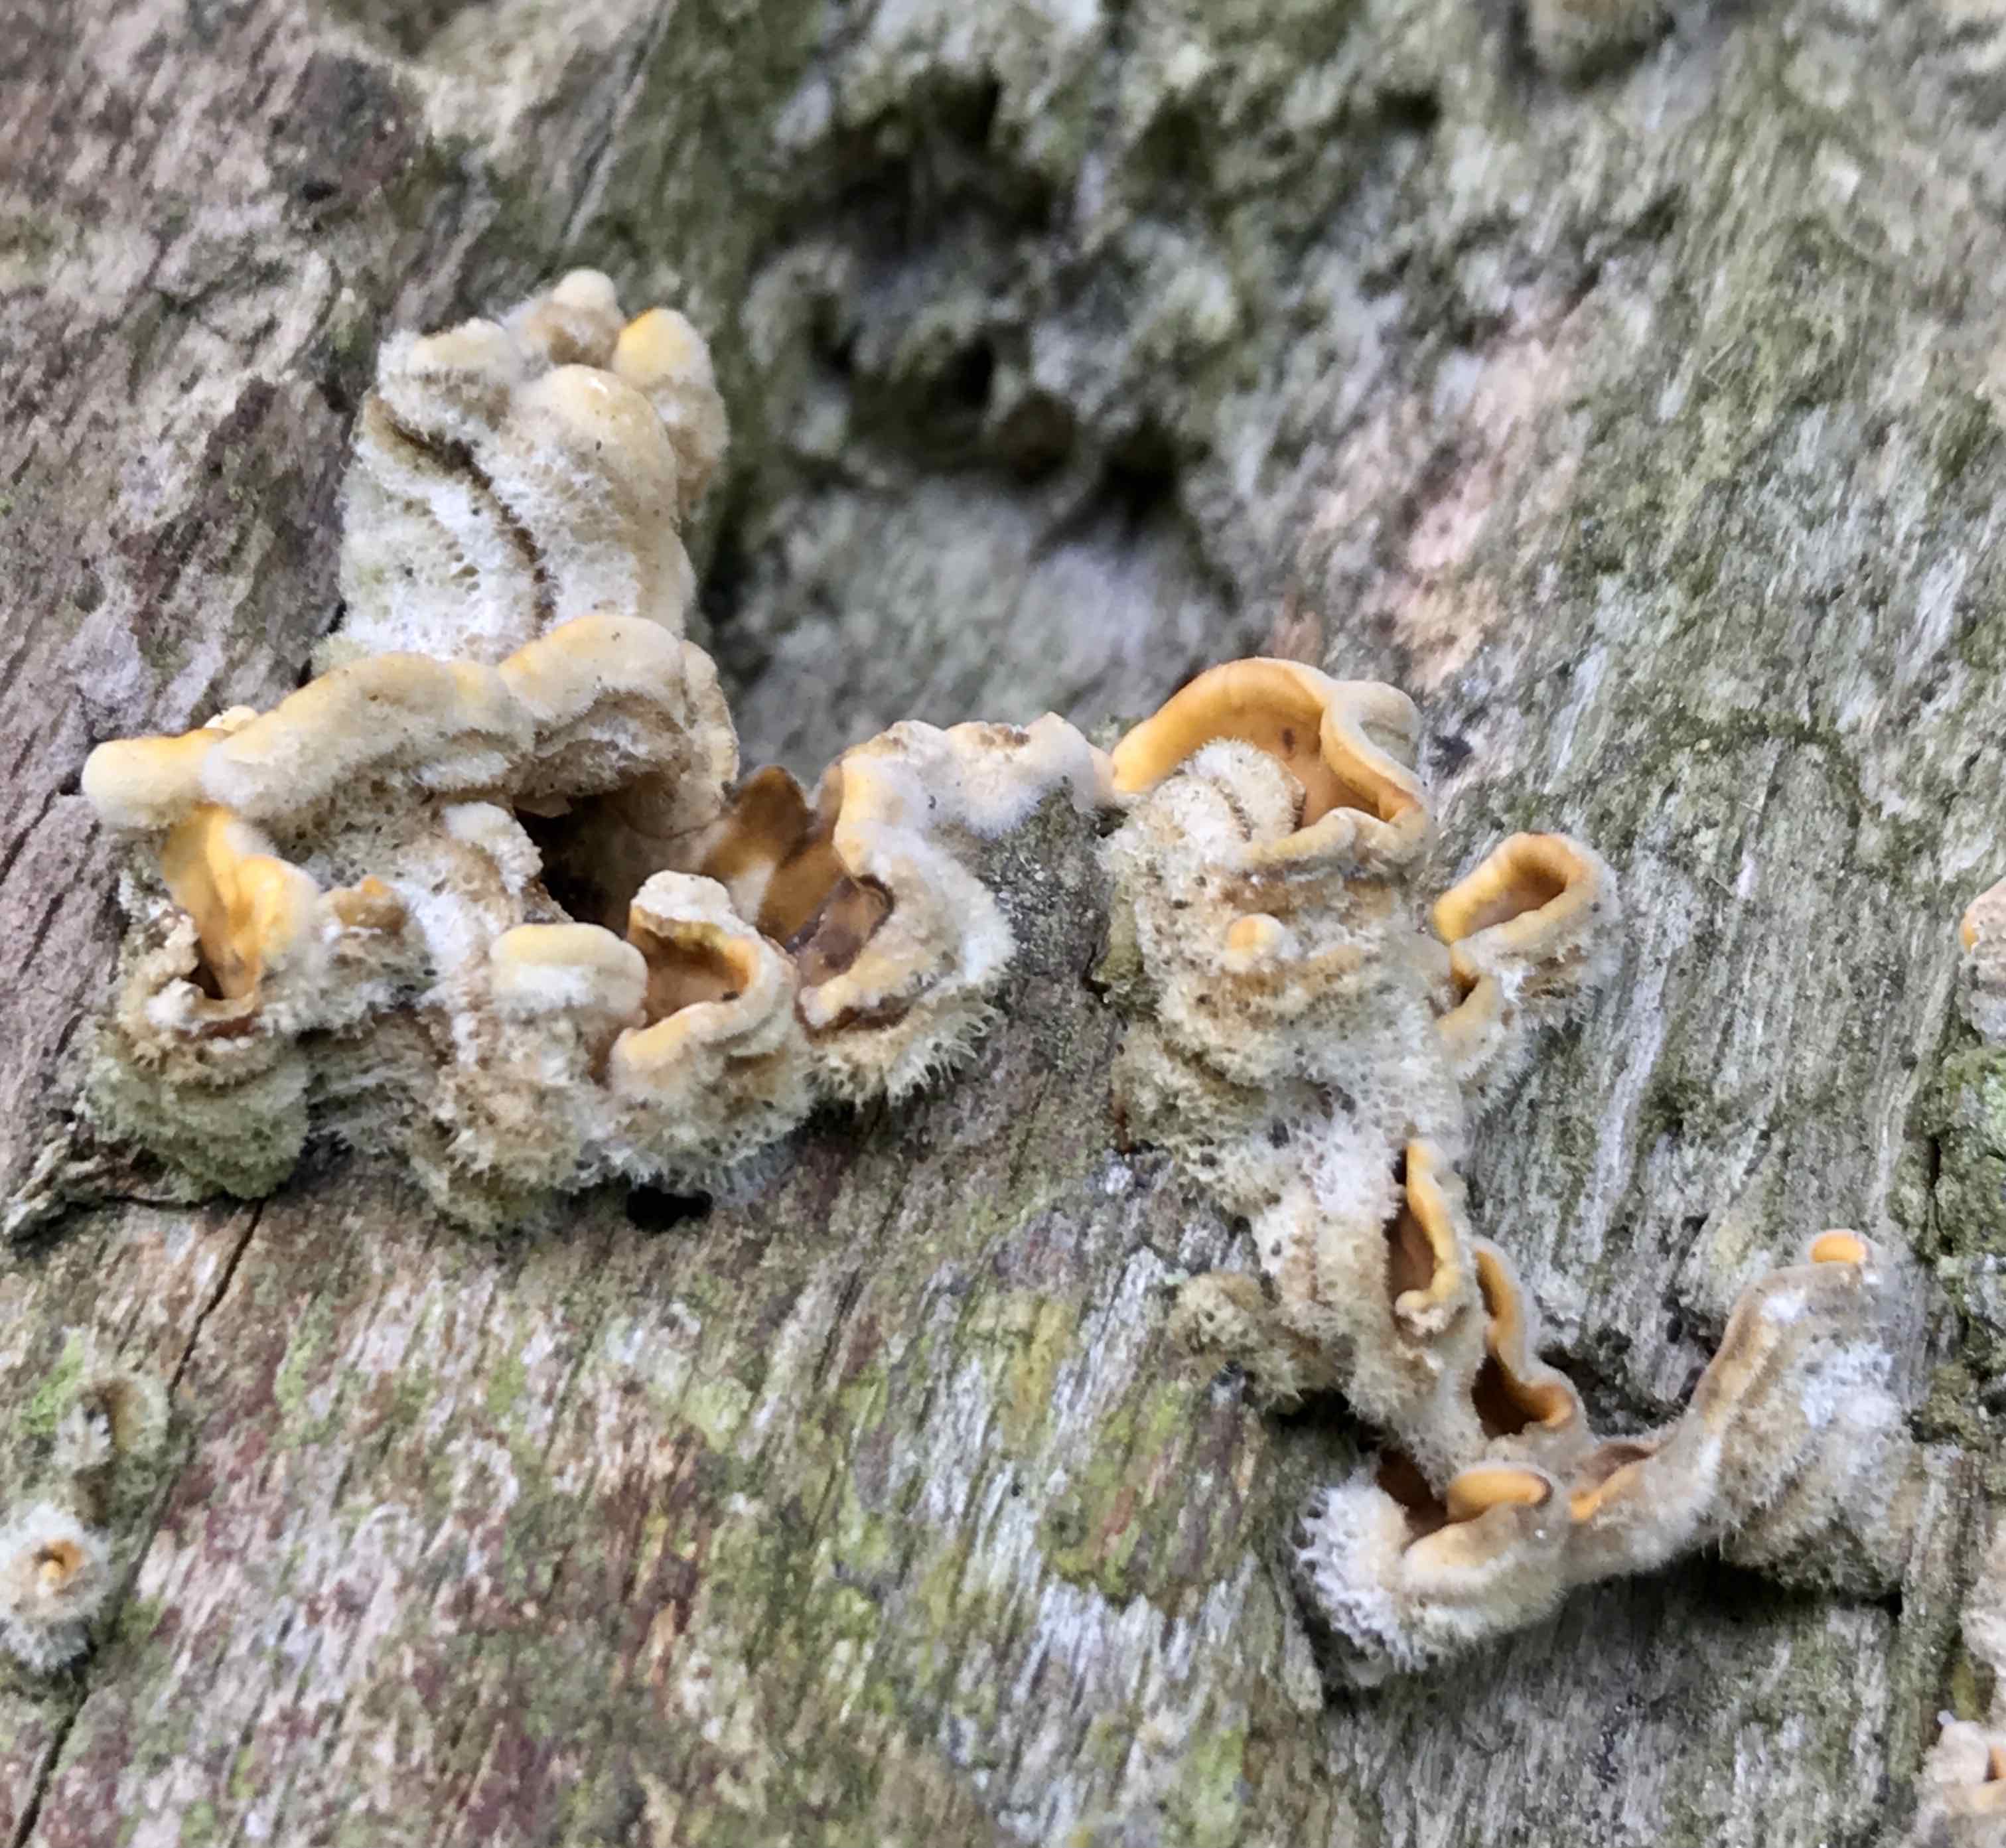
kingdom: Fungi
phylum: Basidiomycota
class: Agaricomycetes
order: Russulales
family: Stereaceae
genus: Stereum
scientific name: Stereum hirsutum
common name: håret lædersvamp
